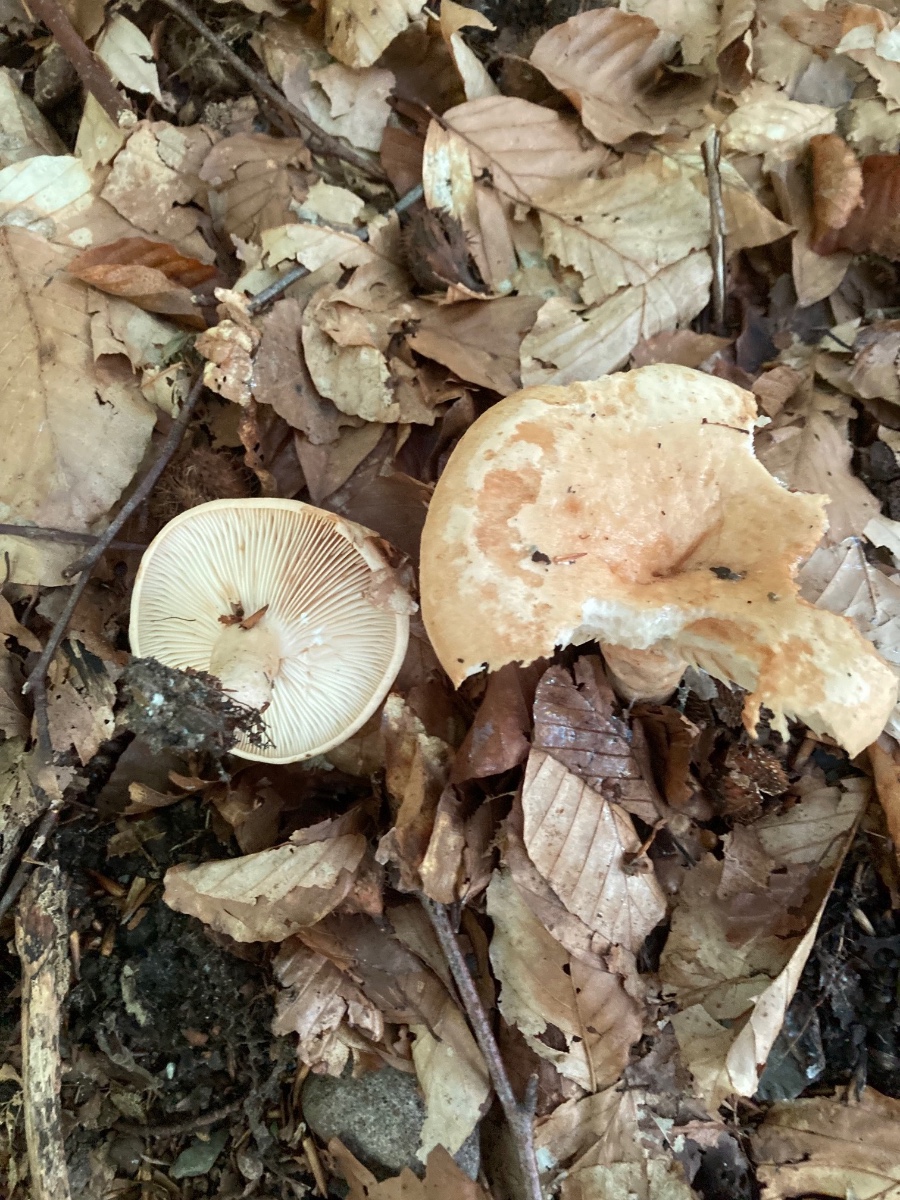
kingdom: Fungi
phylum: Basidiomycota
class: Agaricomycetes
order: Russulales
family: Russulaceae
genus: Lactarius
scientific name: Lactarius pallidus
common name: bleg mælkehat
